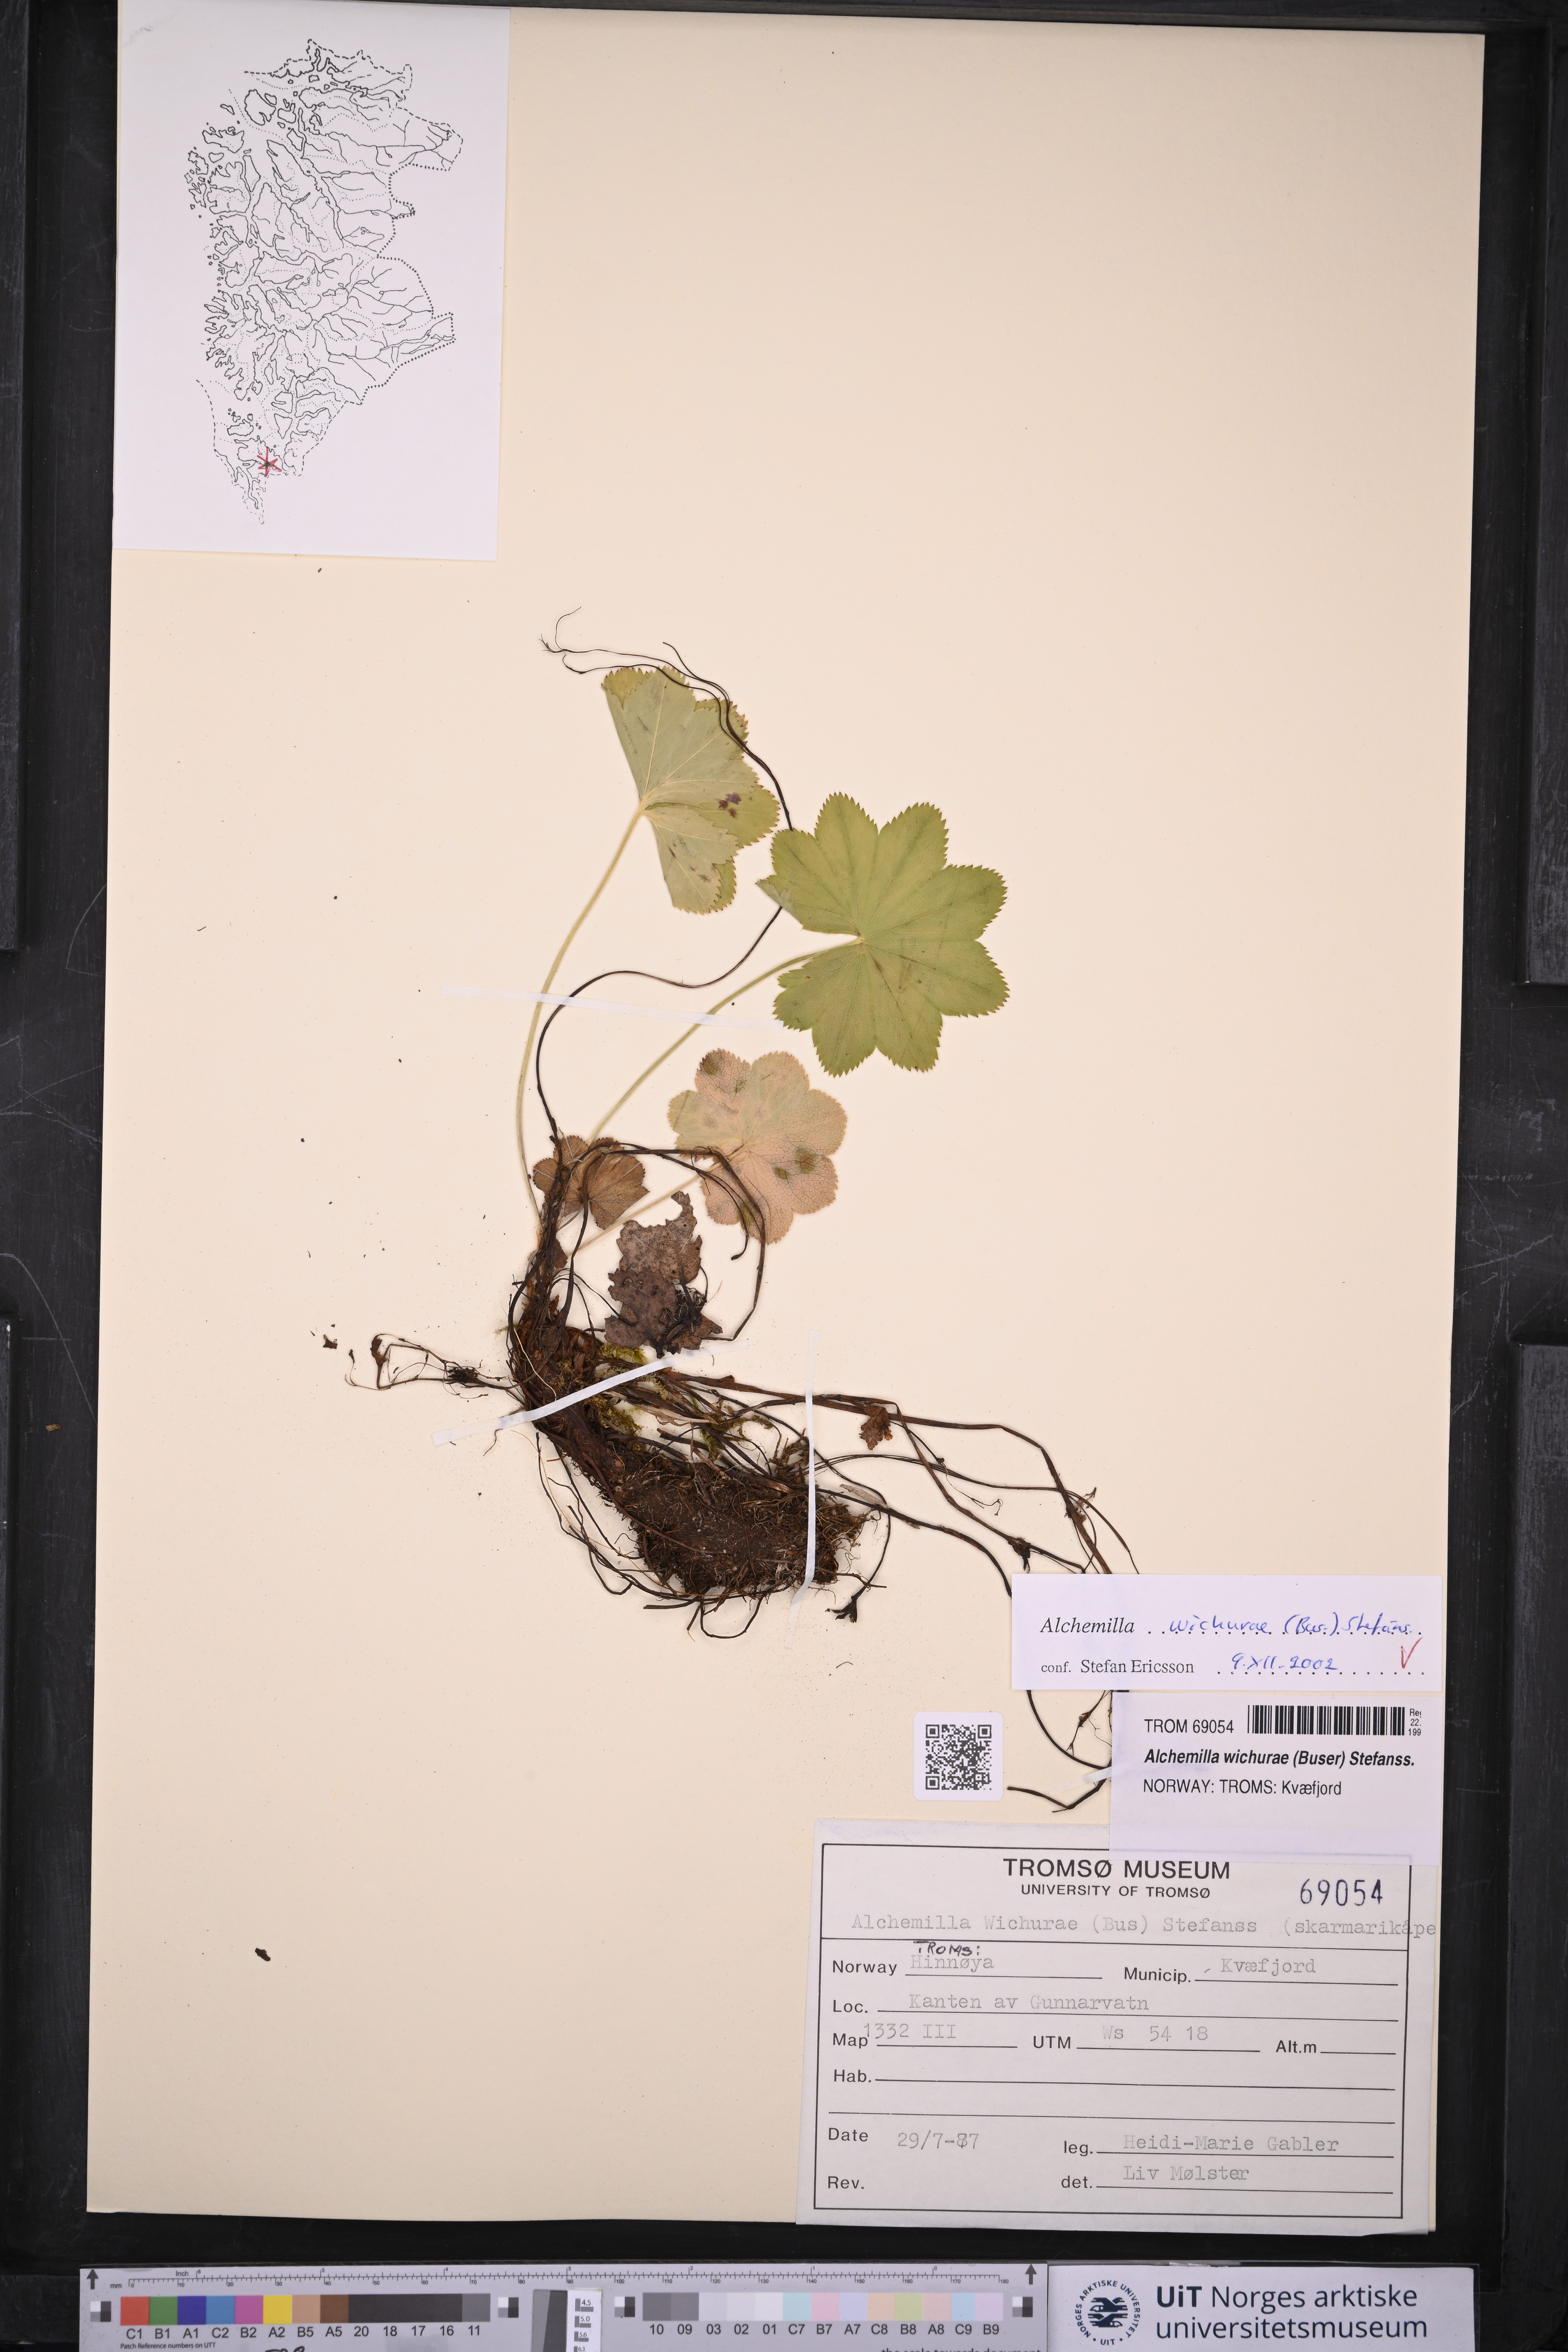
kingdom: Plantae
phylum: Tracheophyta
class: Magnoliopsida
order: Rosales
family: Rosaceae
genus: Alchemilla
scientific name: Alchemilla wichurae
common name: Rock lady's mantle
